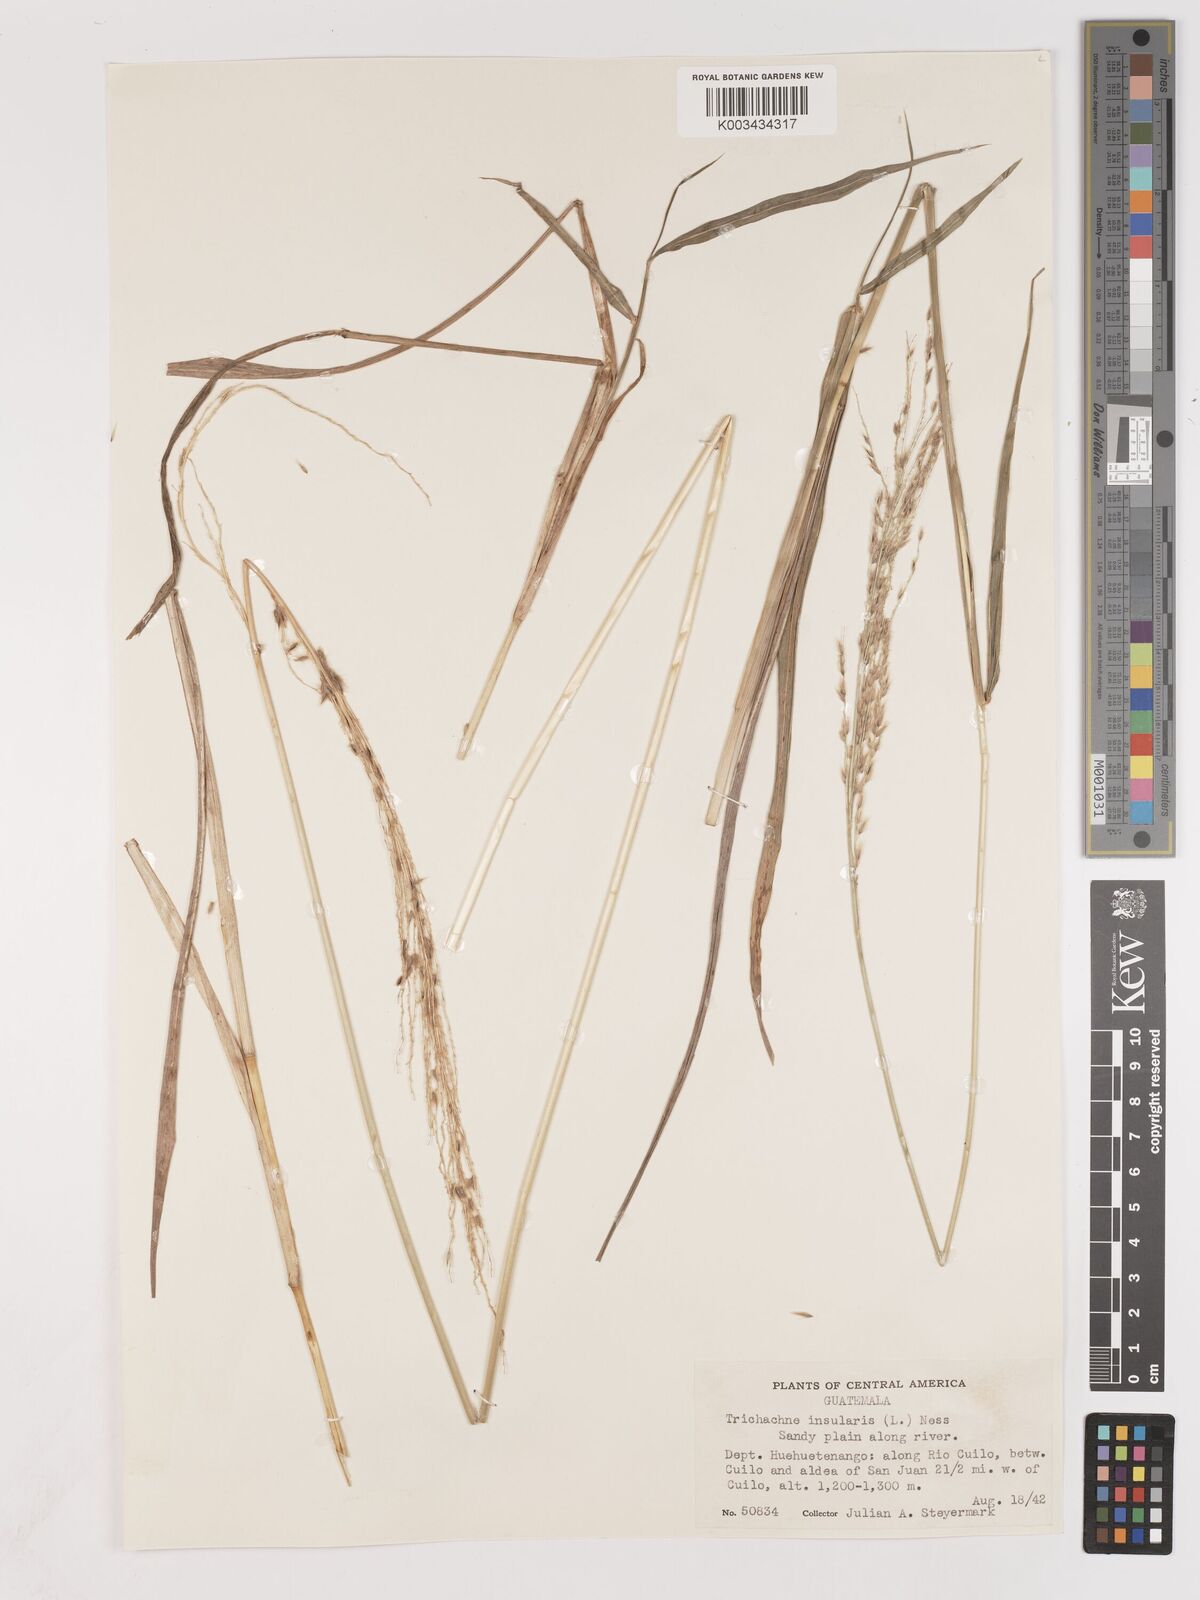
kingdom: Plantae
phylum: Tracheophyta
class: Liliopsida
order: Poales
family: Poaceae
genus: Digitaria
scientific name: Digitaria insularis
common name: Sourgrass
